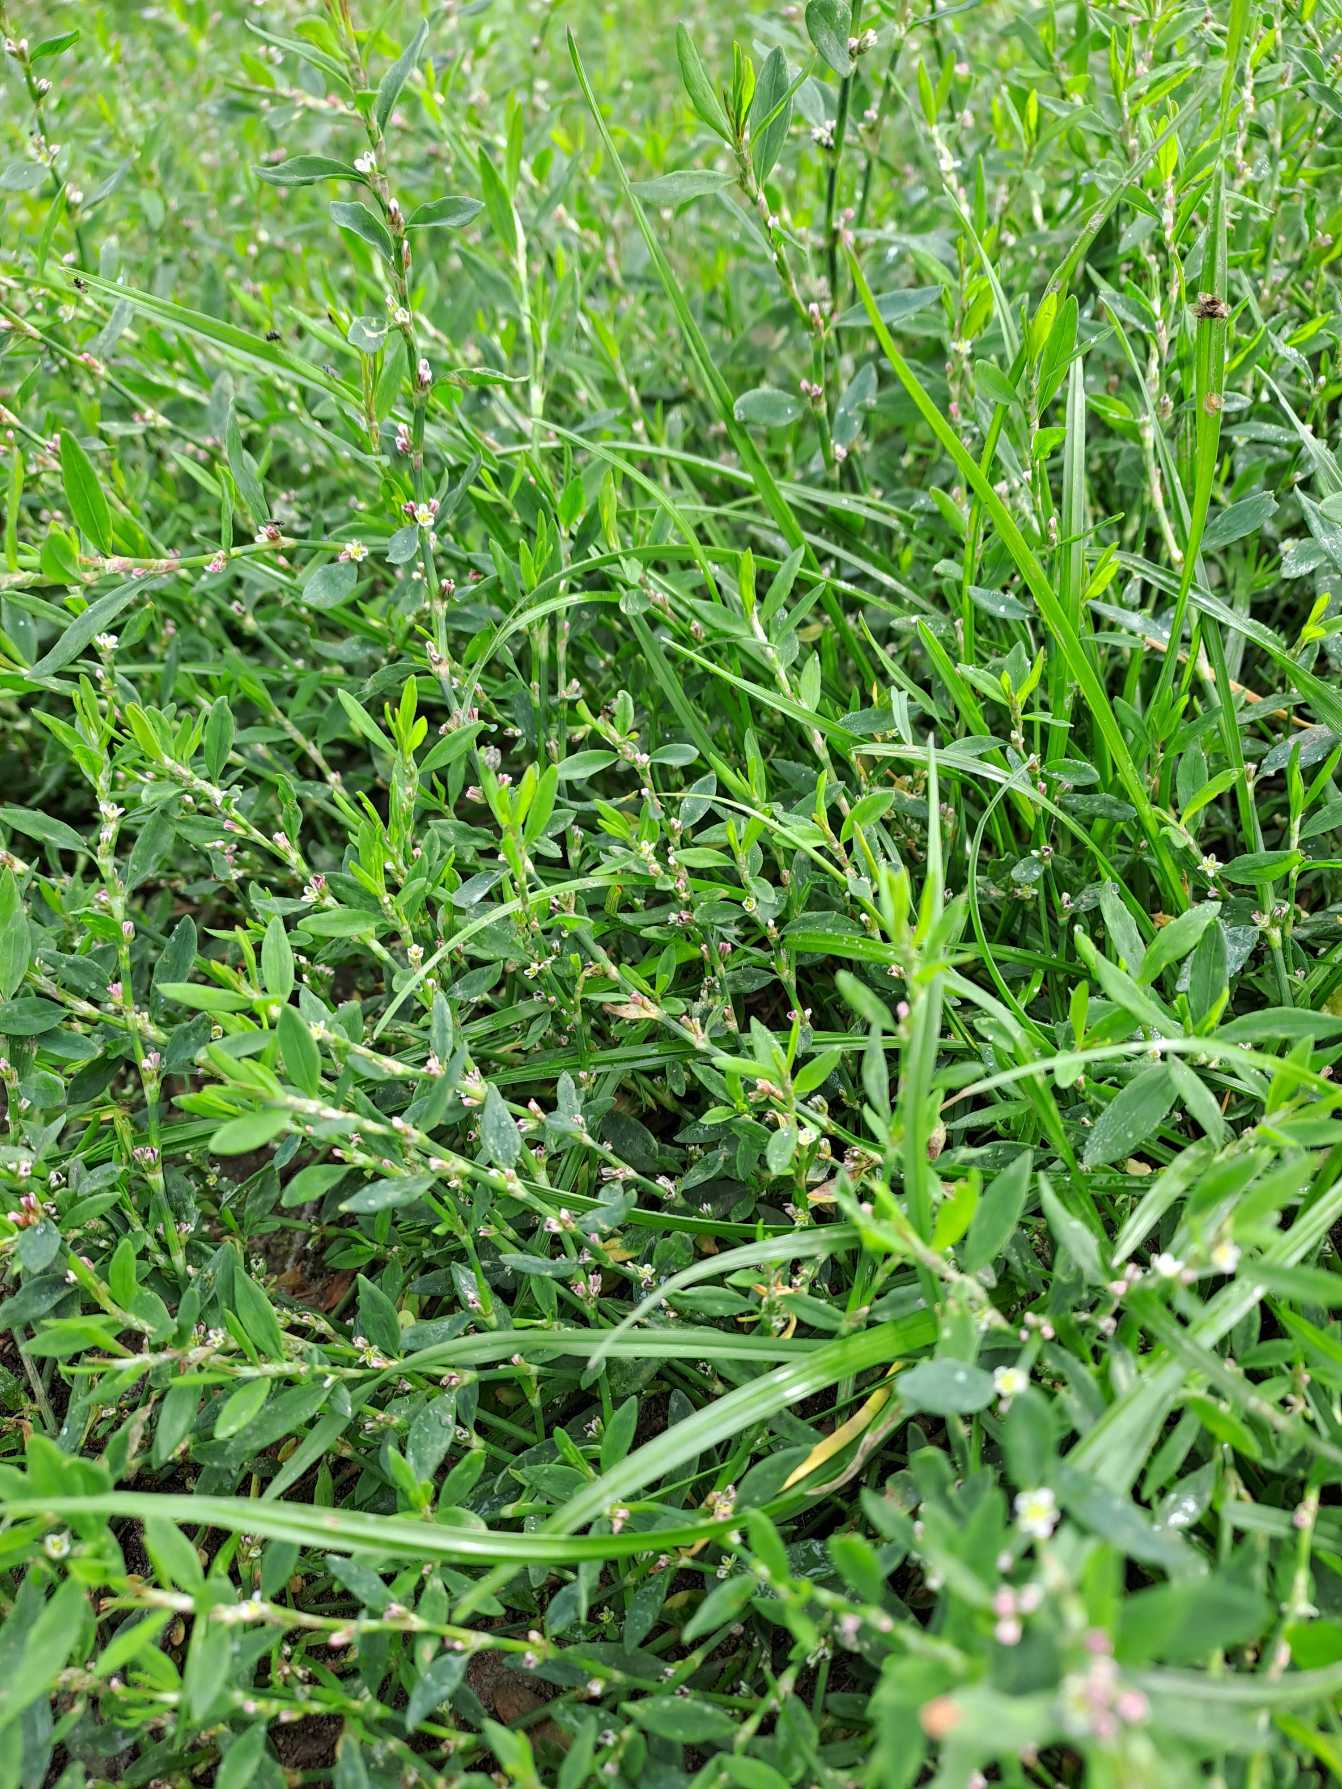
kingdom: Plantae
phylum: Tracheophyta
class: Magnoliopsida
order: Caryophyllales
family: Polygonaceae
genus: Polygonum
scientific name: Polygonum aviculare
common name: Vej-pileurt
